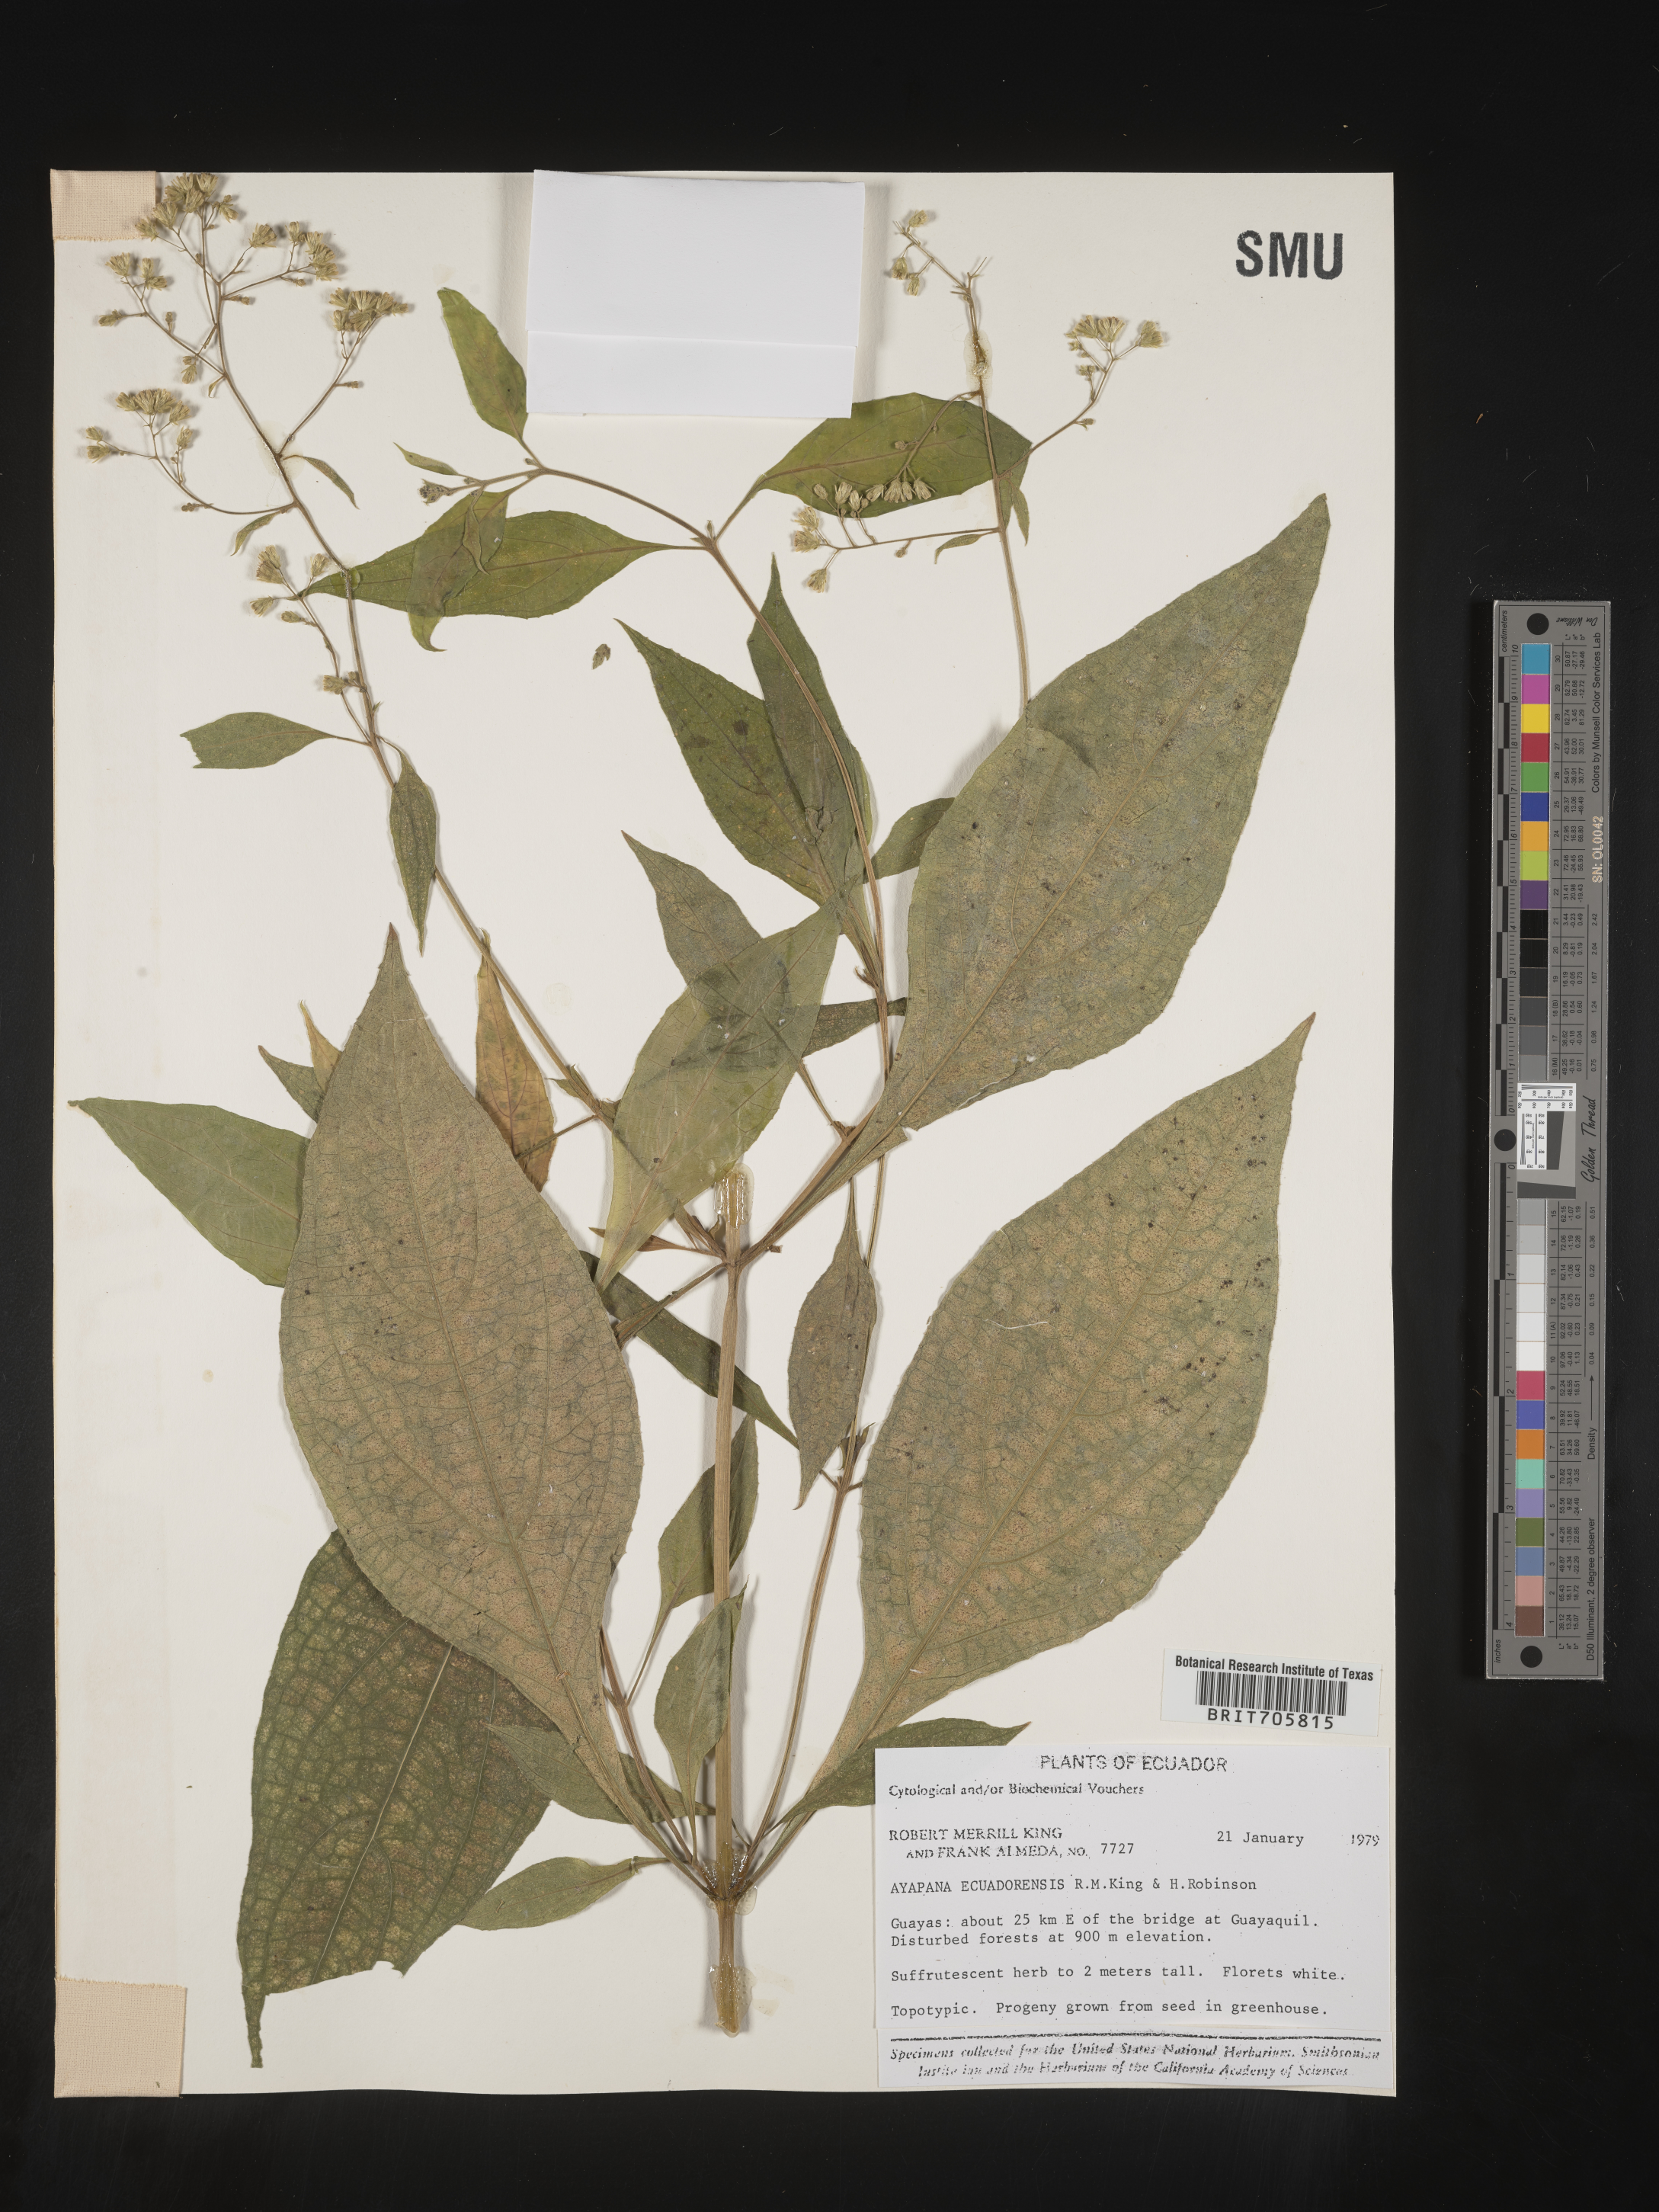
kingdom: Plantae
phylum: Tracheophyta
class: Magnoliopsida
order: Asterales
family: Asteraceae
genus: Eupatorium
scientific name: Eupatorium
